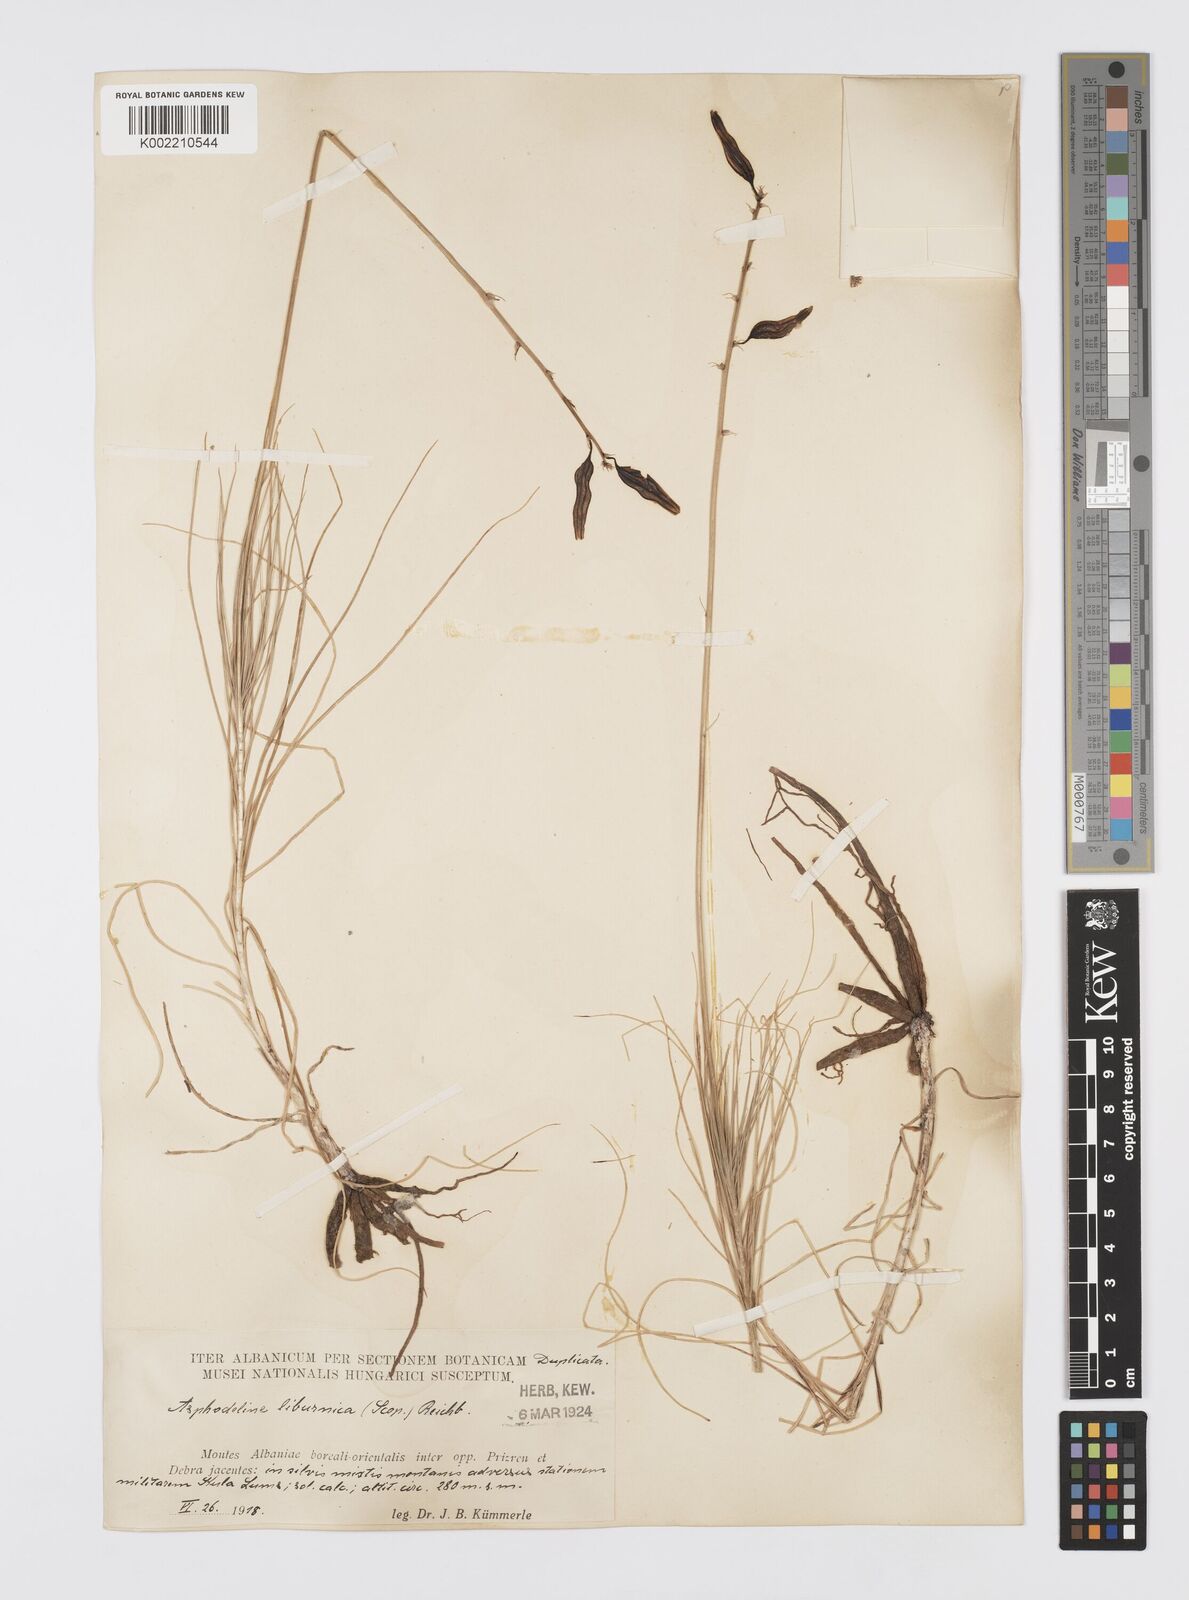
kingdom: Plantae
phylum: Tracheophyta
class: Liliopsida
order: Asparagales
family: Asphodelaceae
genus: Asphodeline
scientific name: Asphodeline liburnica
